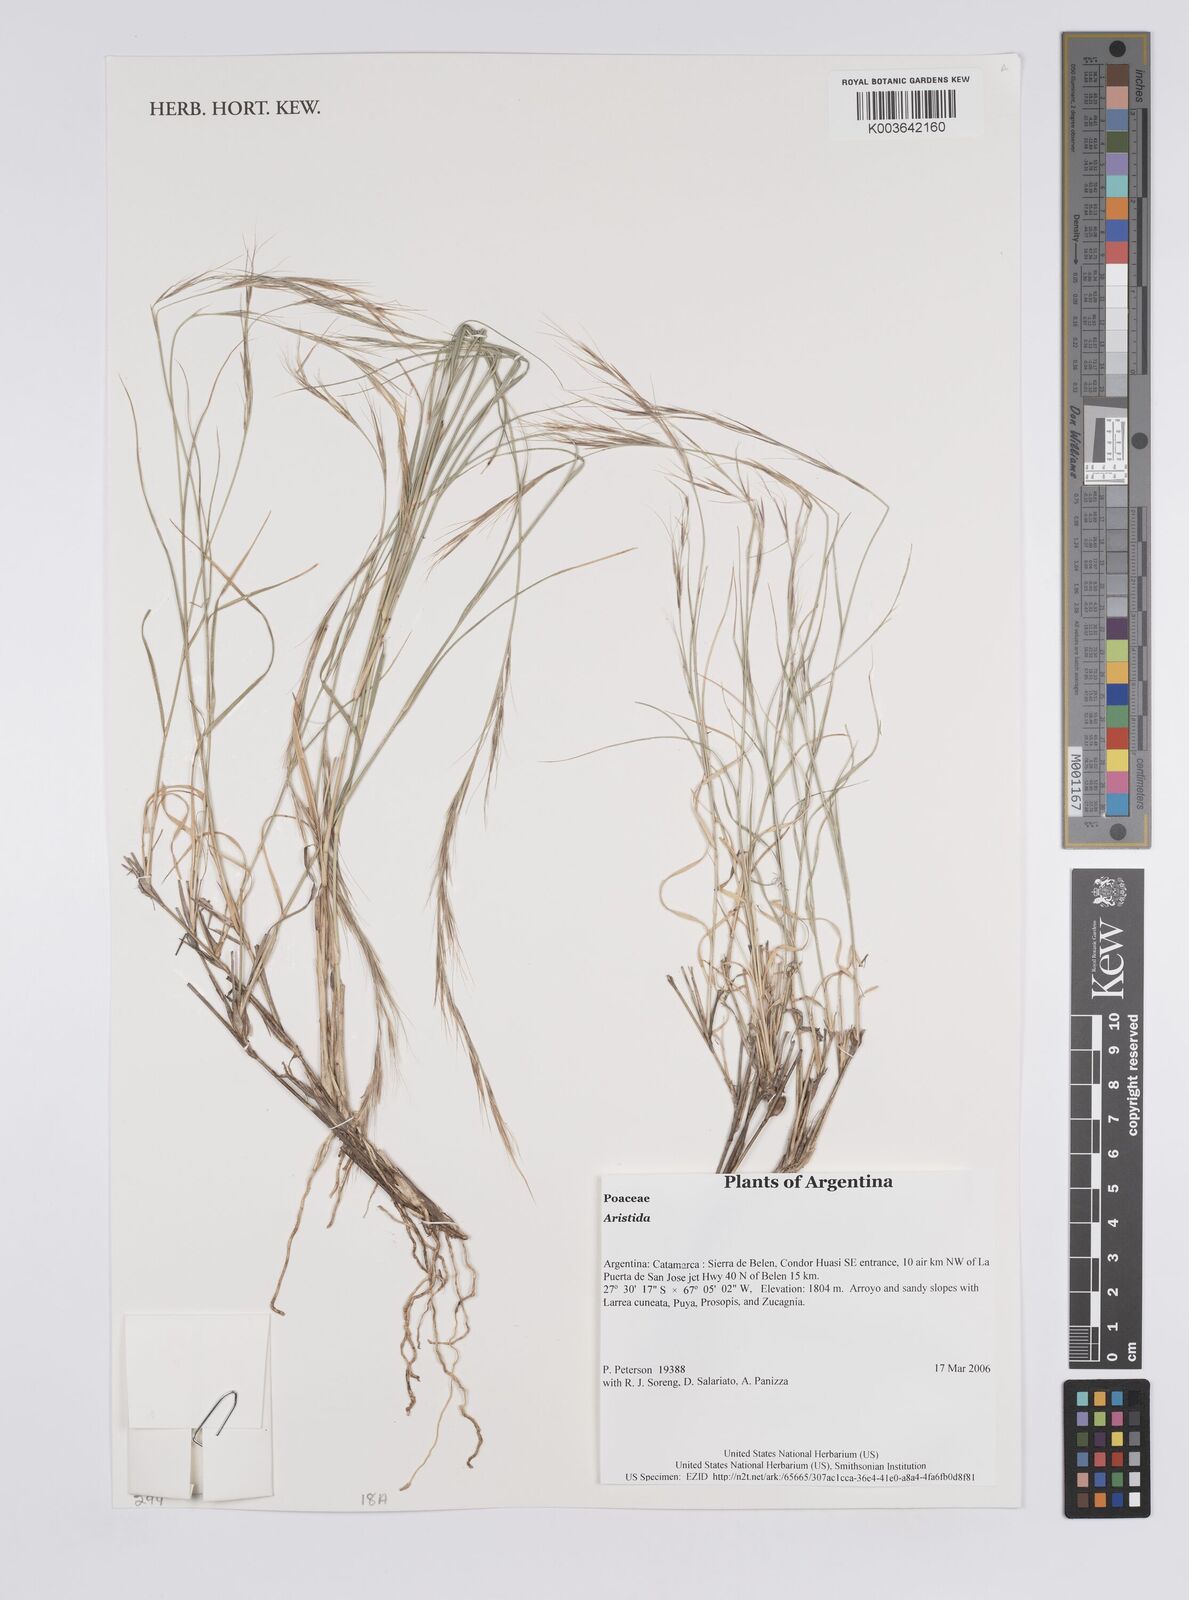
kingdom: Plantae
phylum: Tracheophyta
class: Liliopsida
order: Poales
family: Poaceae
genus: Aristida
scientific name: Aristida
